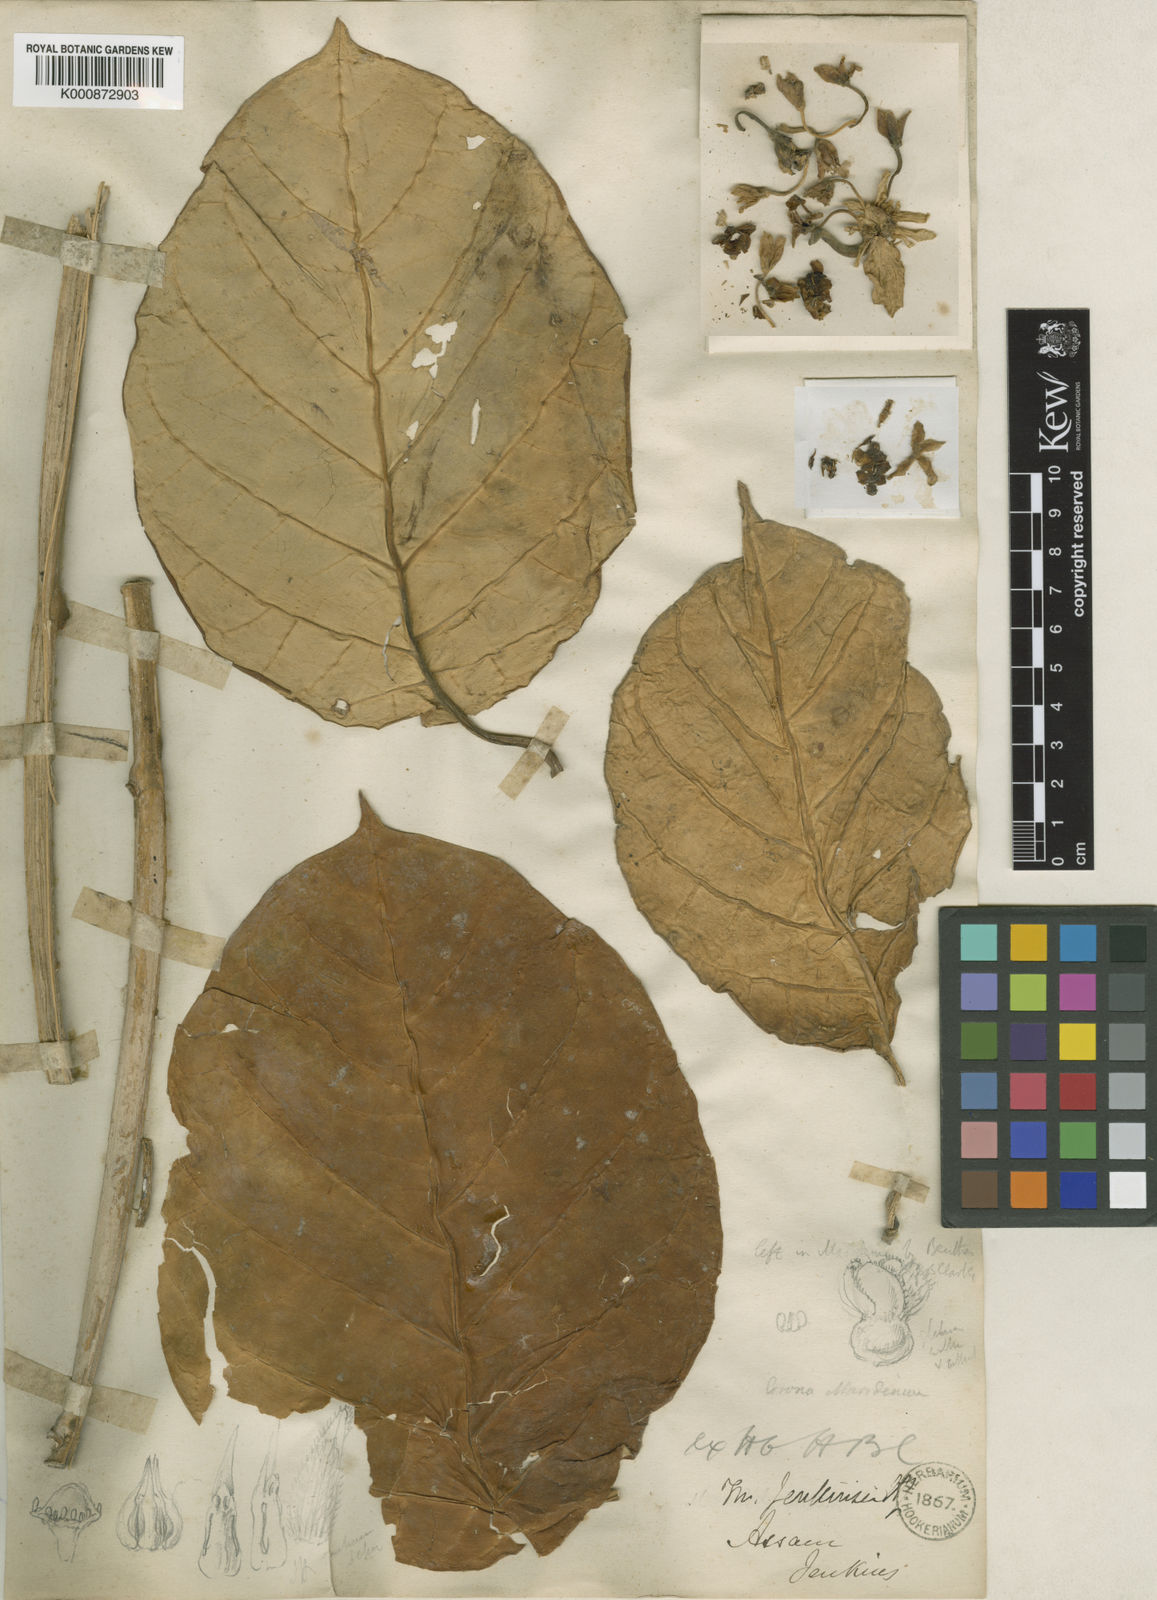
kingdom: Plantae
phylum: Tracheophyta
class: Magnoliopsida
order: Gentianales
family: Apocynaceae
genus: Sinomarsdenia
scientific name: Sinomarsdenia jenkinsii
